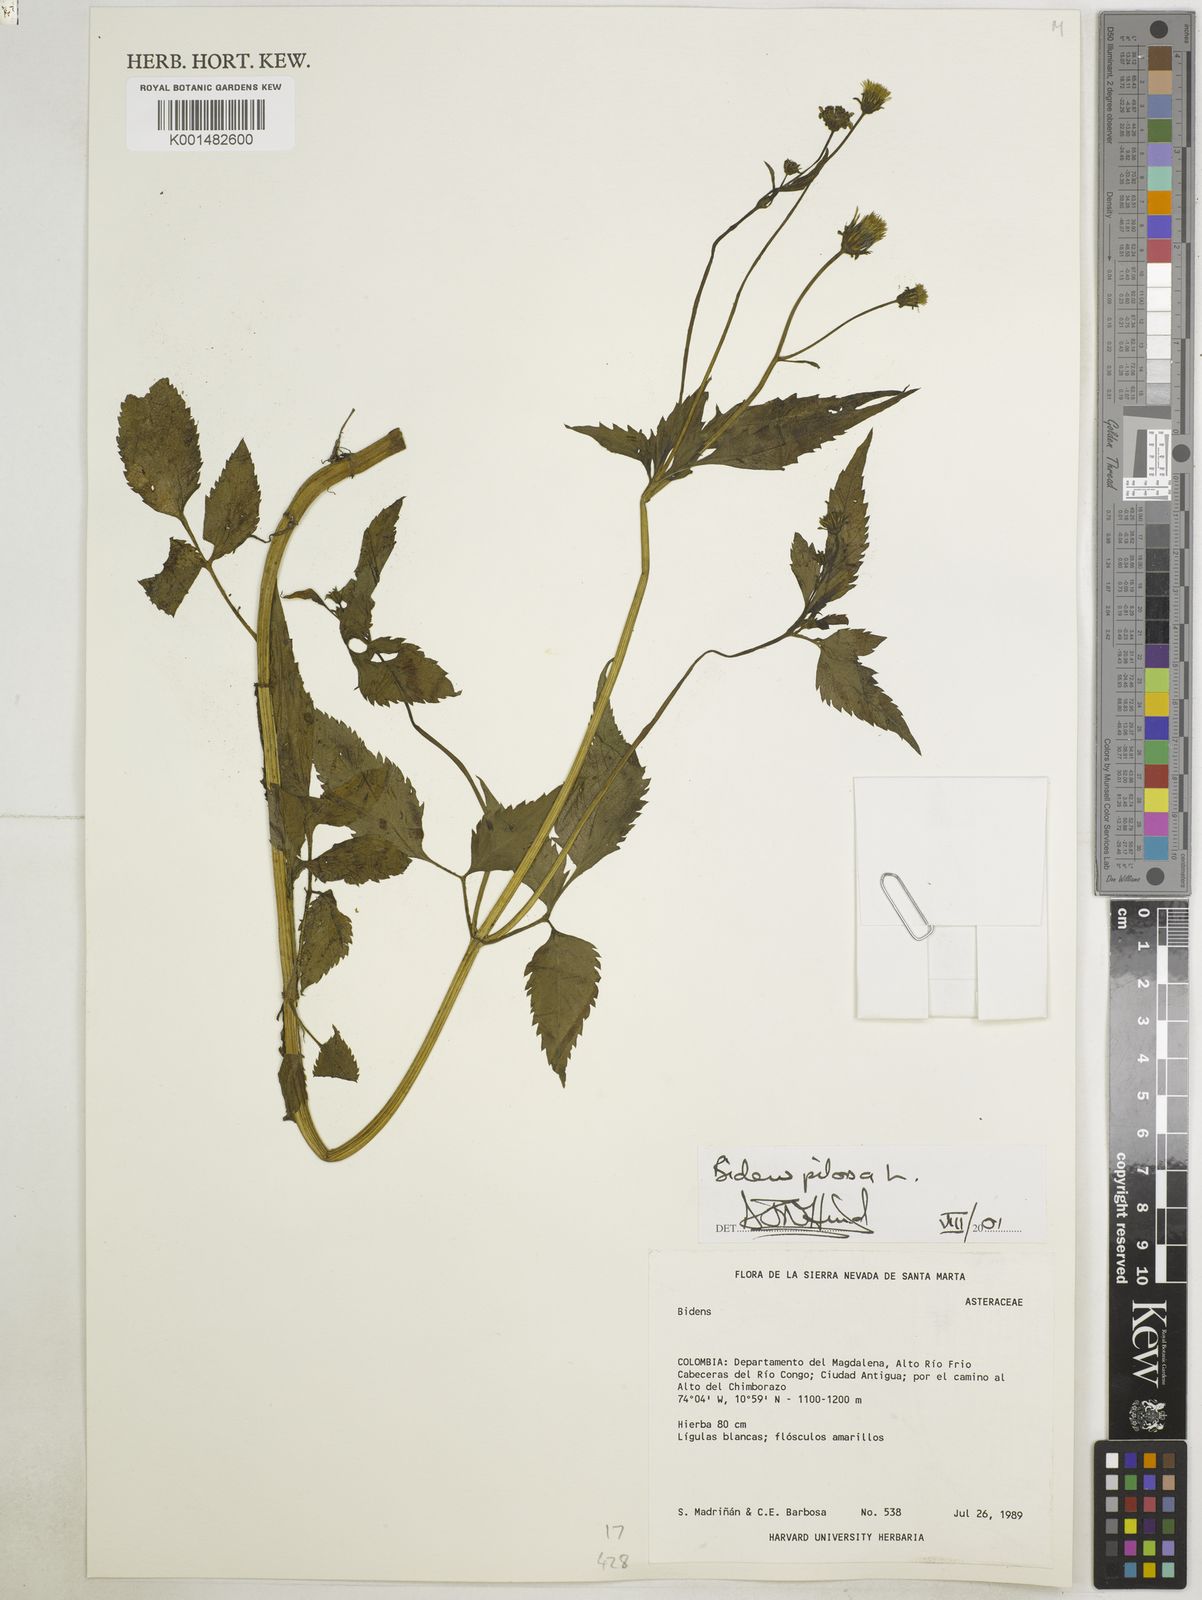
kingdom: Plantae
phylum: Tracheophyta
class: Magnoliopsida
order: Asterales
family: Asteraceae
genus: Bidens
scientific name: Bidens pilosa
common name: Black-jack
